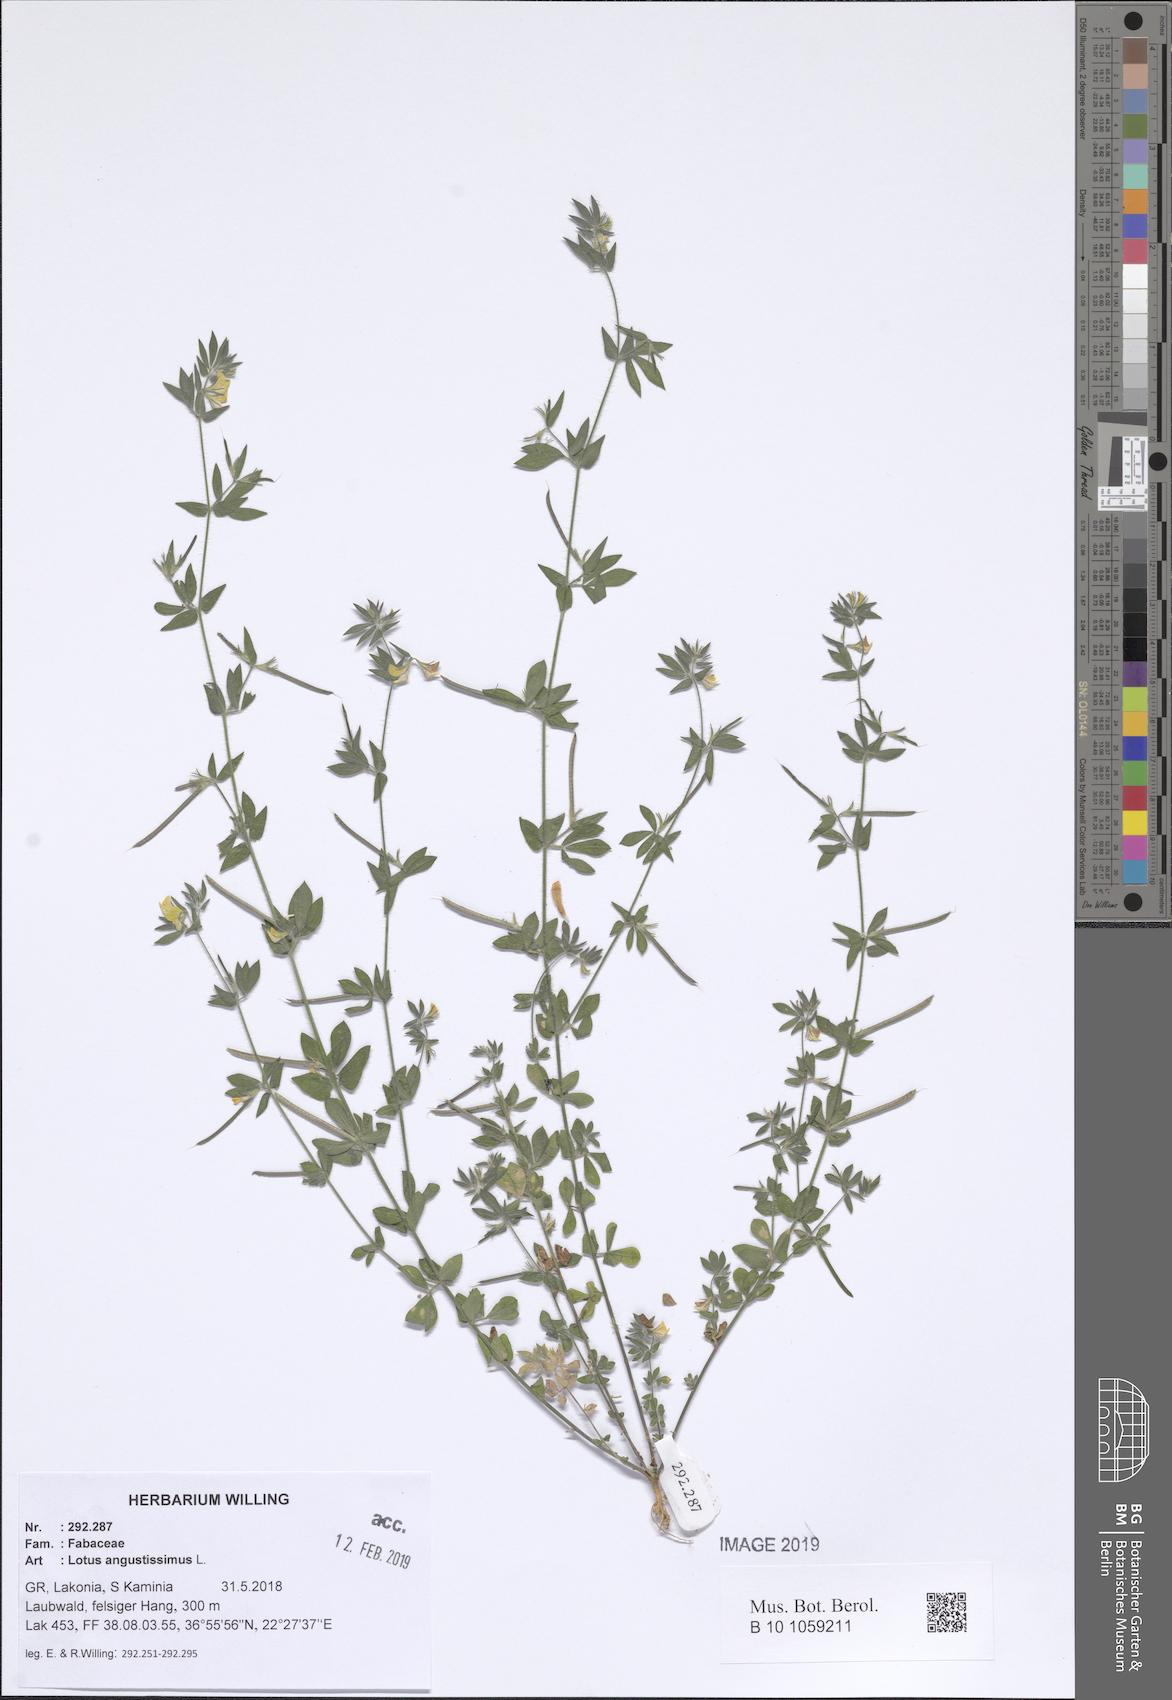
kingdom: Plantae
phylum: Tracheophyta
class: Magnoliopsida
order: Fabales
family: Fabaceae
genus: Lotus
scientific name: Lotus angustissimus
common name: Slender bird's-foot trefoil
